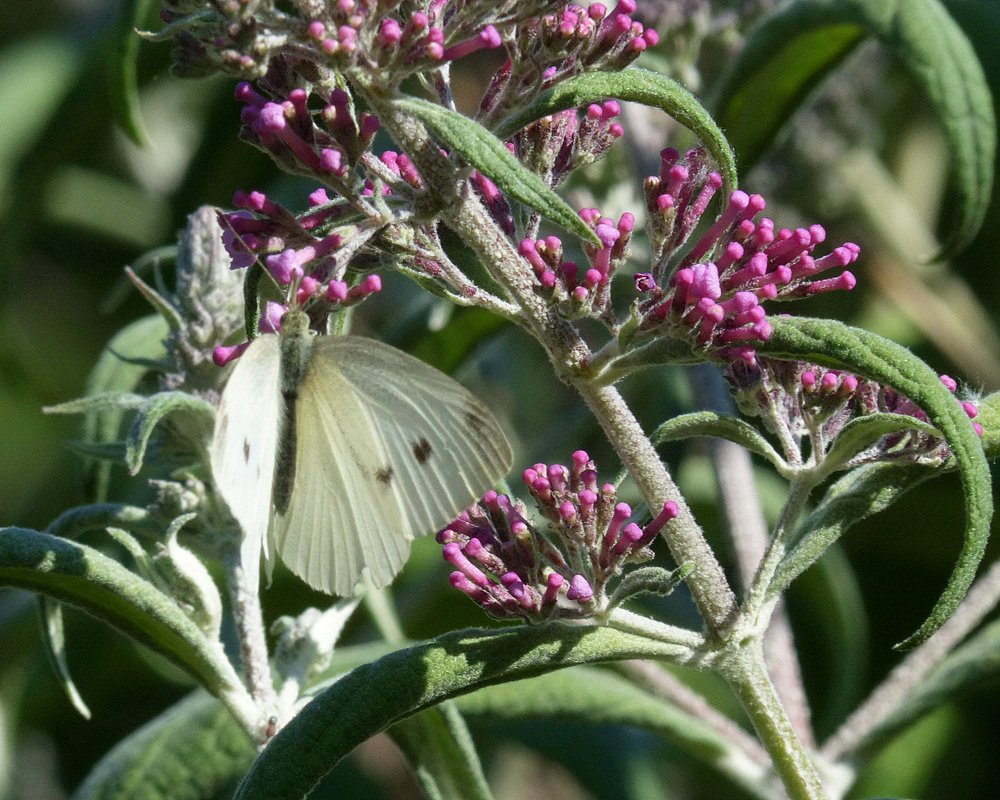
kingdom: Animalia
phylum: Arthropoda
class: Insecta
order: Lepidoptera
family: Pieridae
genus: Pieris
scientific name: Pieris rapae
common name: Cabbage White
